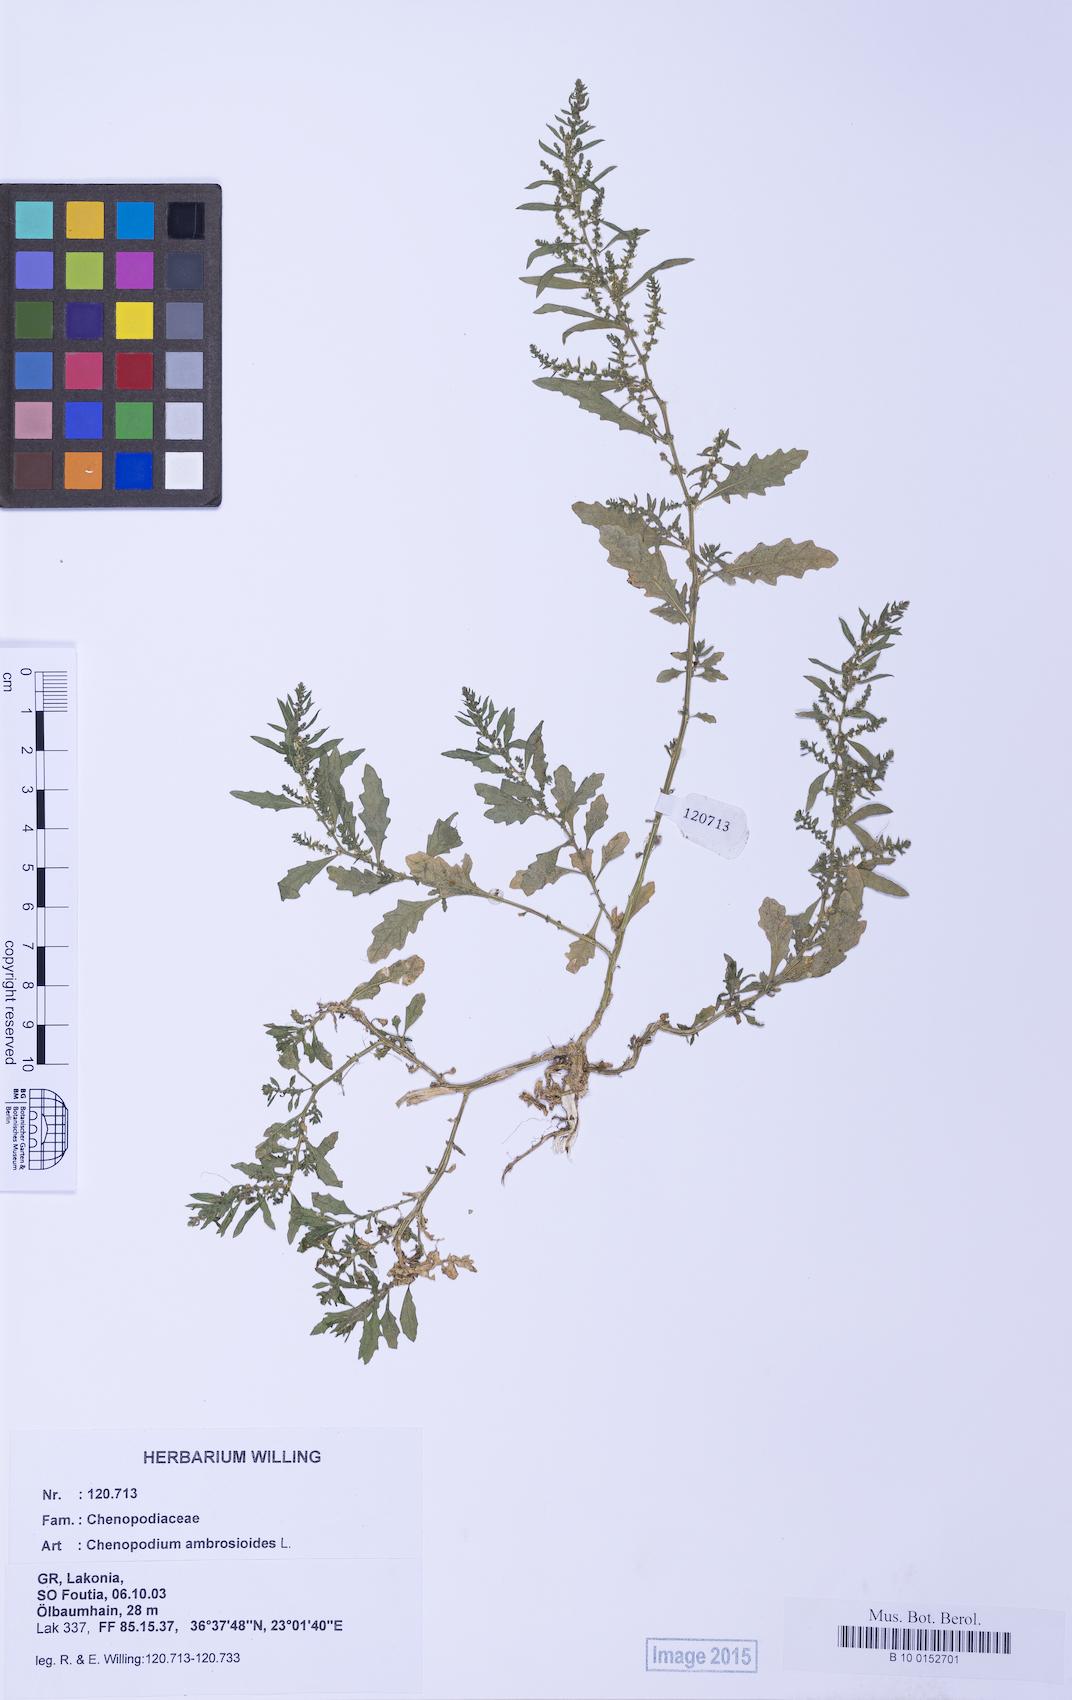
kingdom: Plantae
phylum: Tracheophyta
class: Magnoliopsida
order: Caryophyllales
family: Amaranthaceae
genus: Dysphania
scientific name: Dysphania ambrosioides
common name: Wormseed
